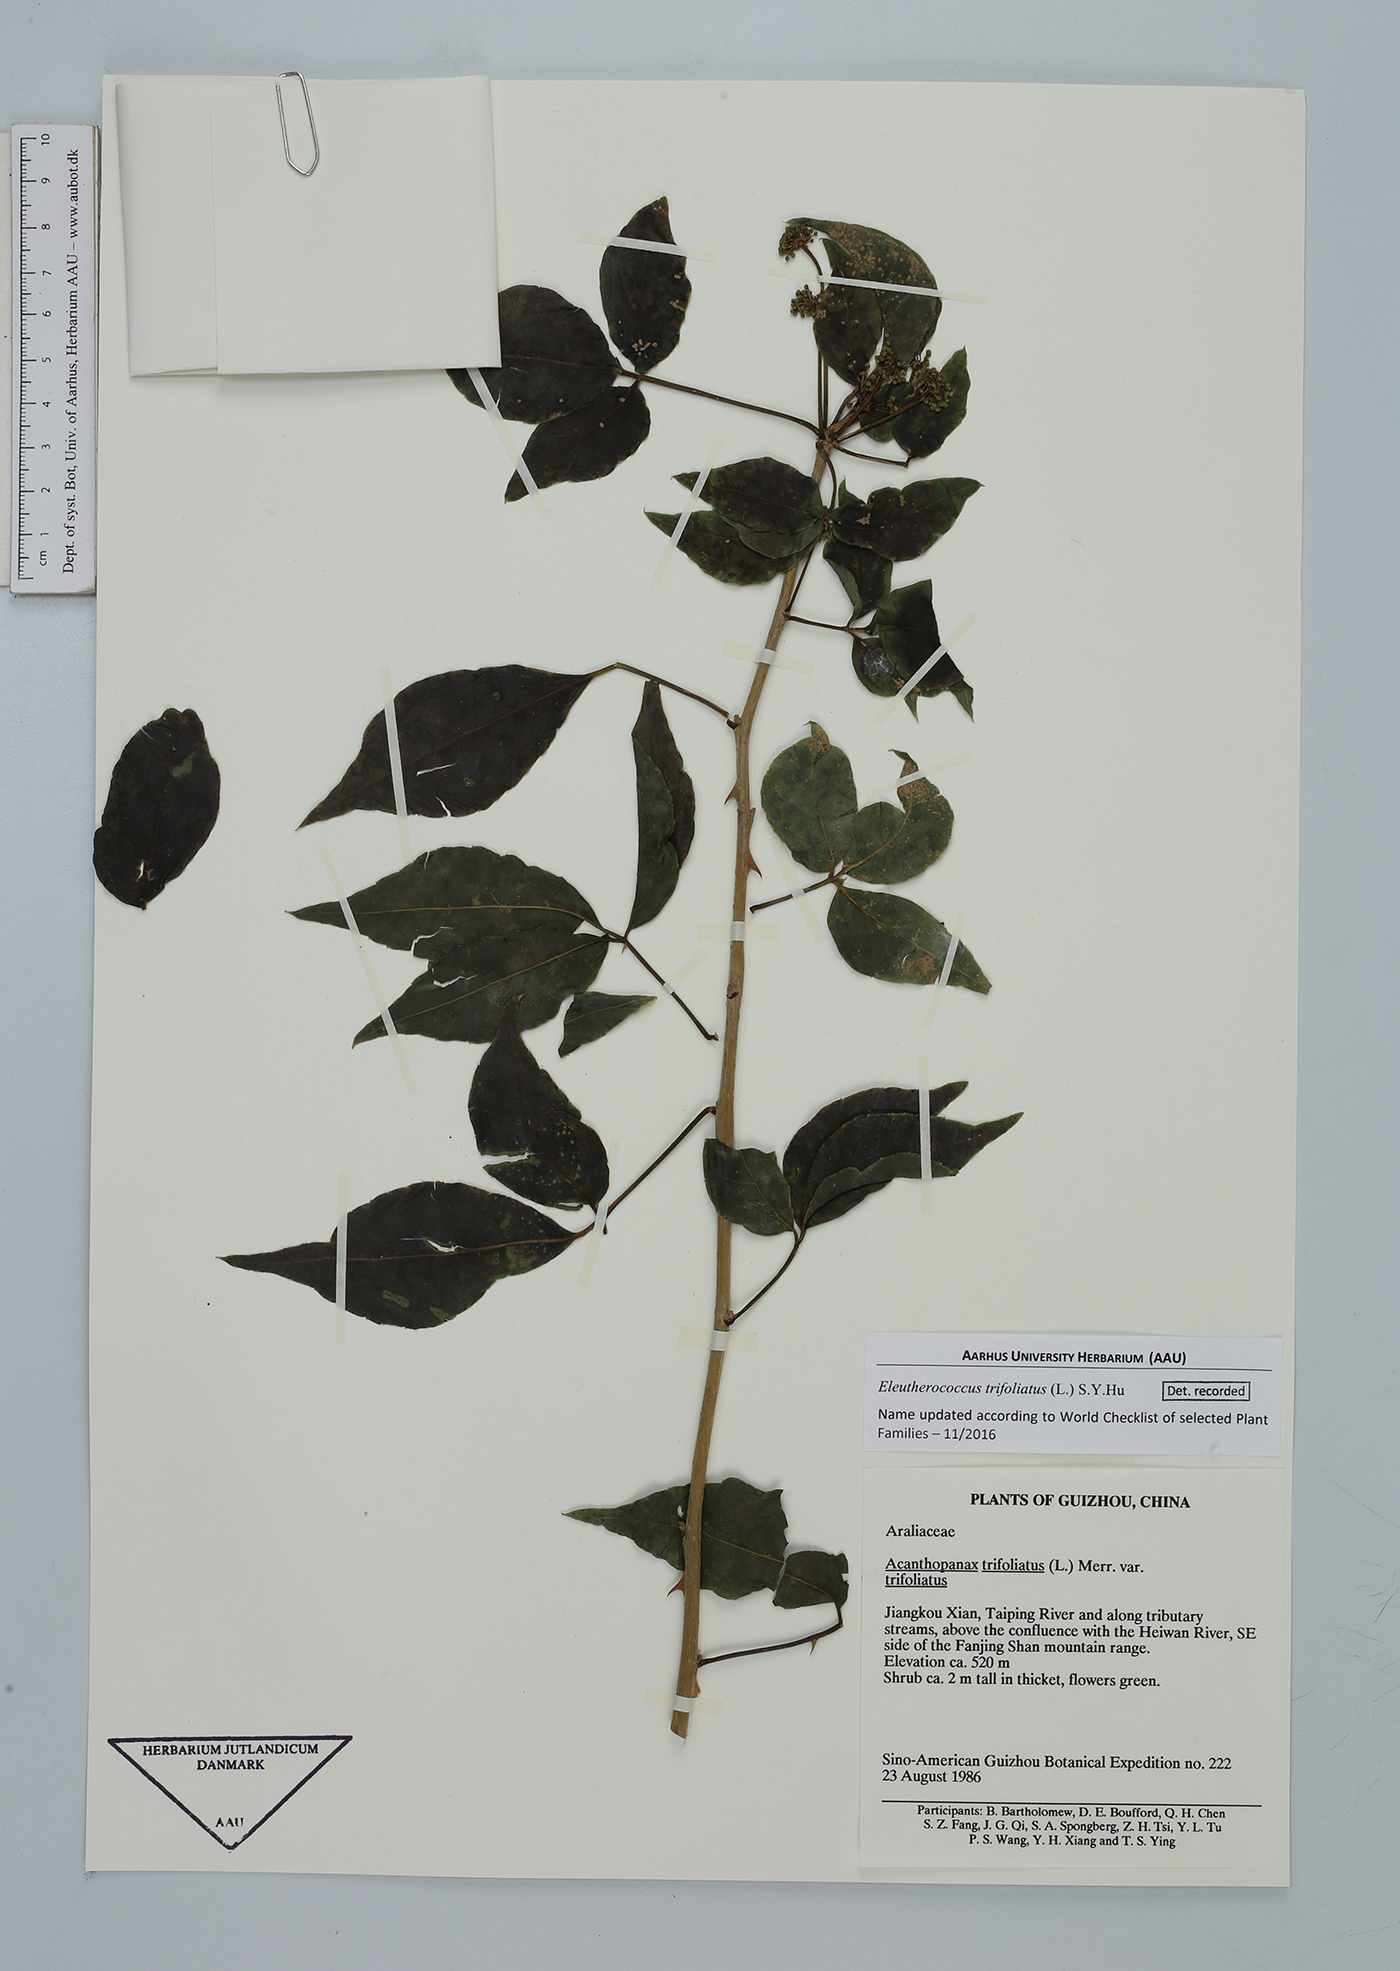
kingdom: Plantae
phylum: Tracheophyta
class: Magnoliopsida
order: Apiales
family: Araliaceae
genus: Eleutherococcus
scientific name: Eleutherococcus trifoliatus
